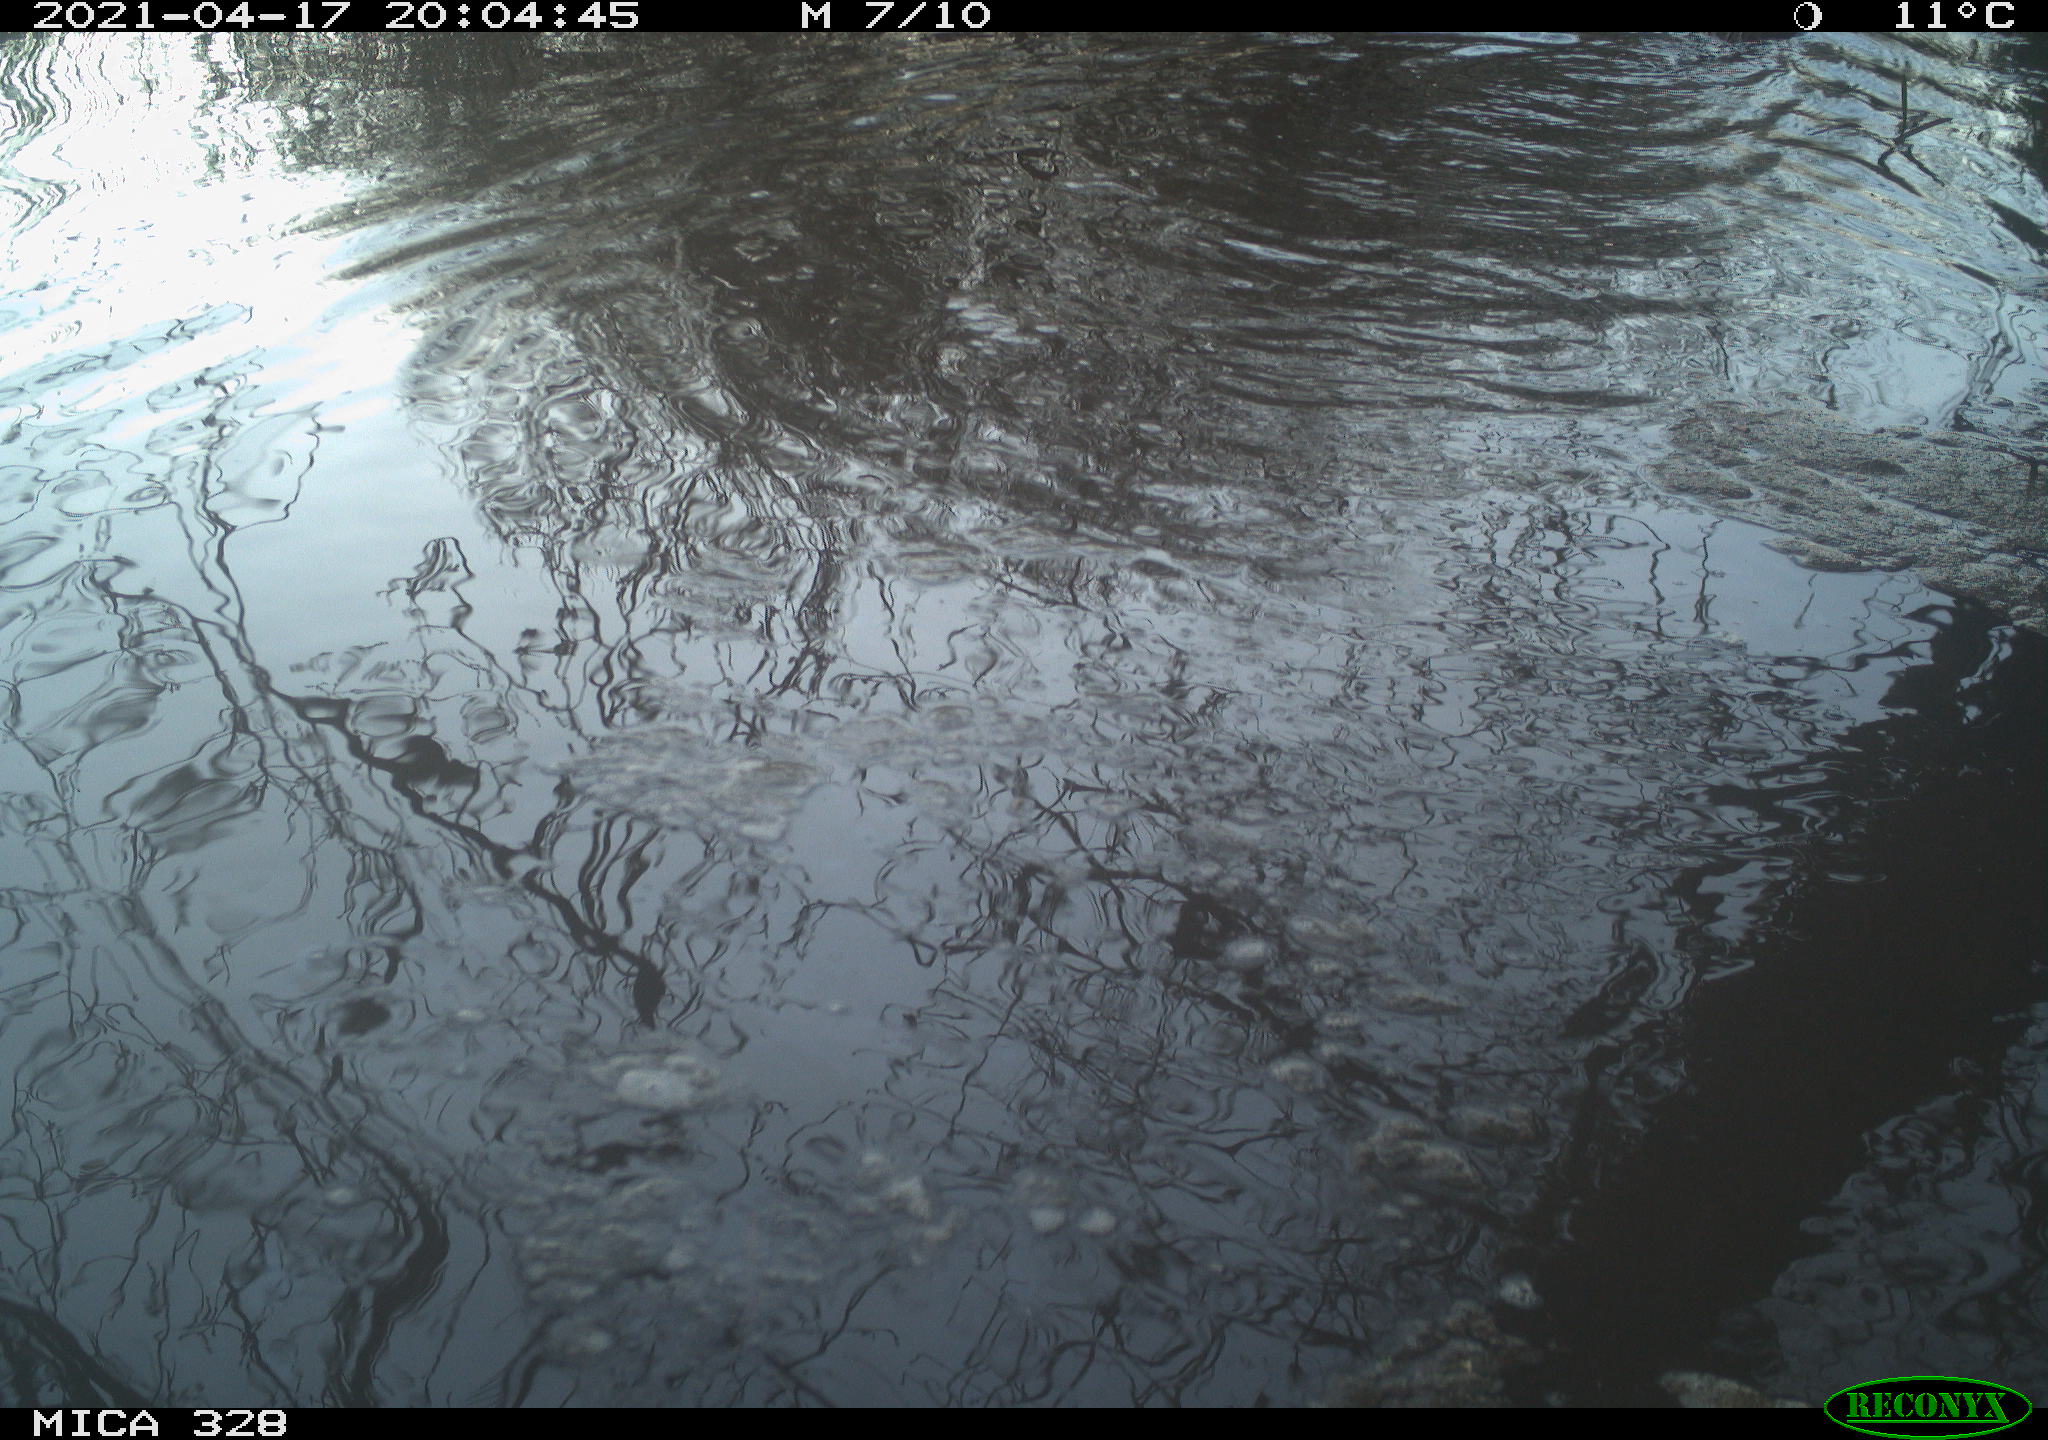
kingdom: Animalia
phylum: Chordata
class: Mammalia
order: Rodentia
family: Cricetidae
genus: Ondatra
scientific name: Ondatra zibethicus
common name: Muskrat
